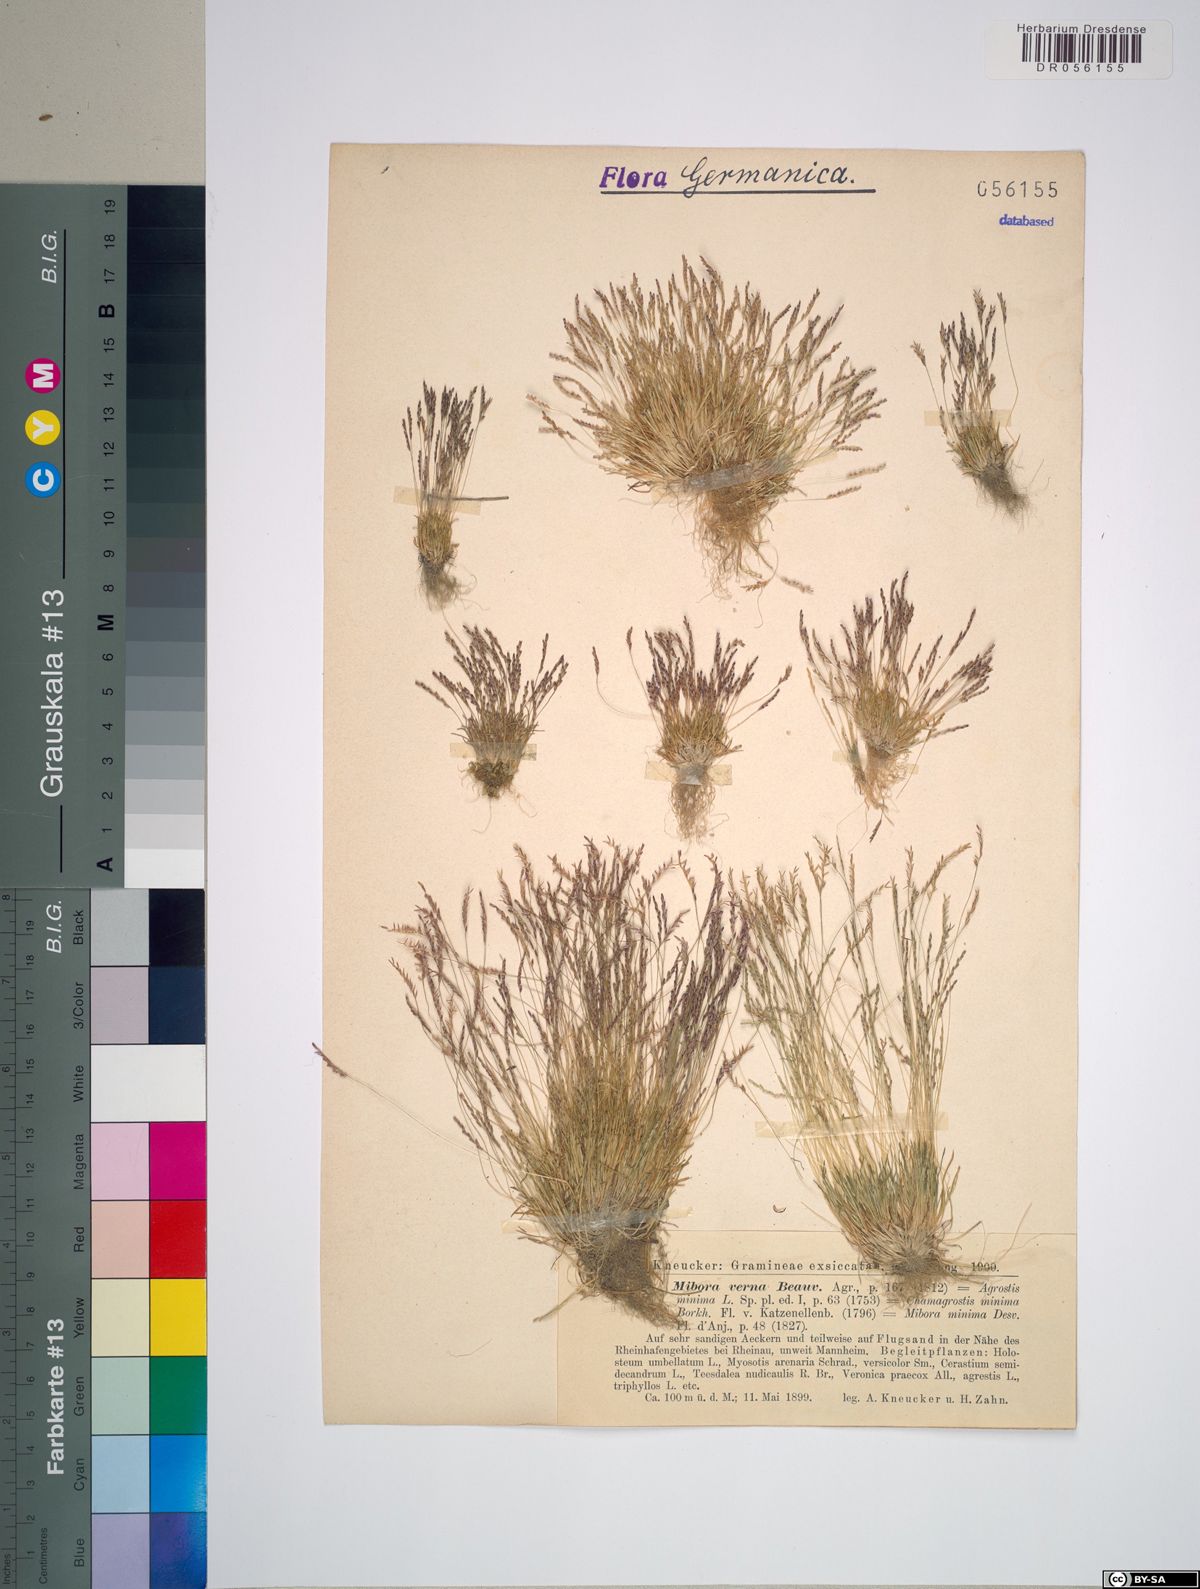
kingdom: Plantae
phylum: Tracheophyta
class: Liliopsida
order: Poales
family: Poaceae
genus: Mibora
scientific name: Mibora minima
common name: Early sand-grass
